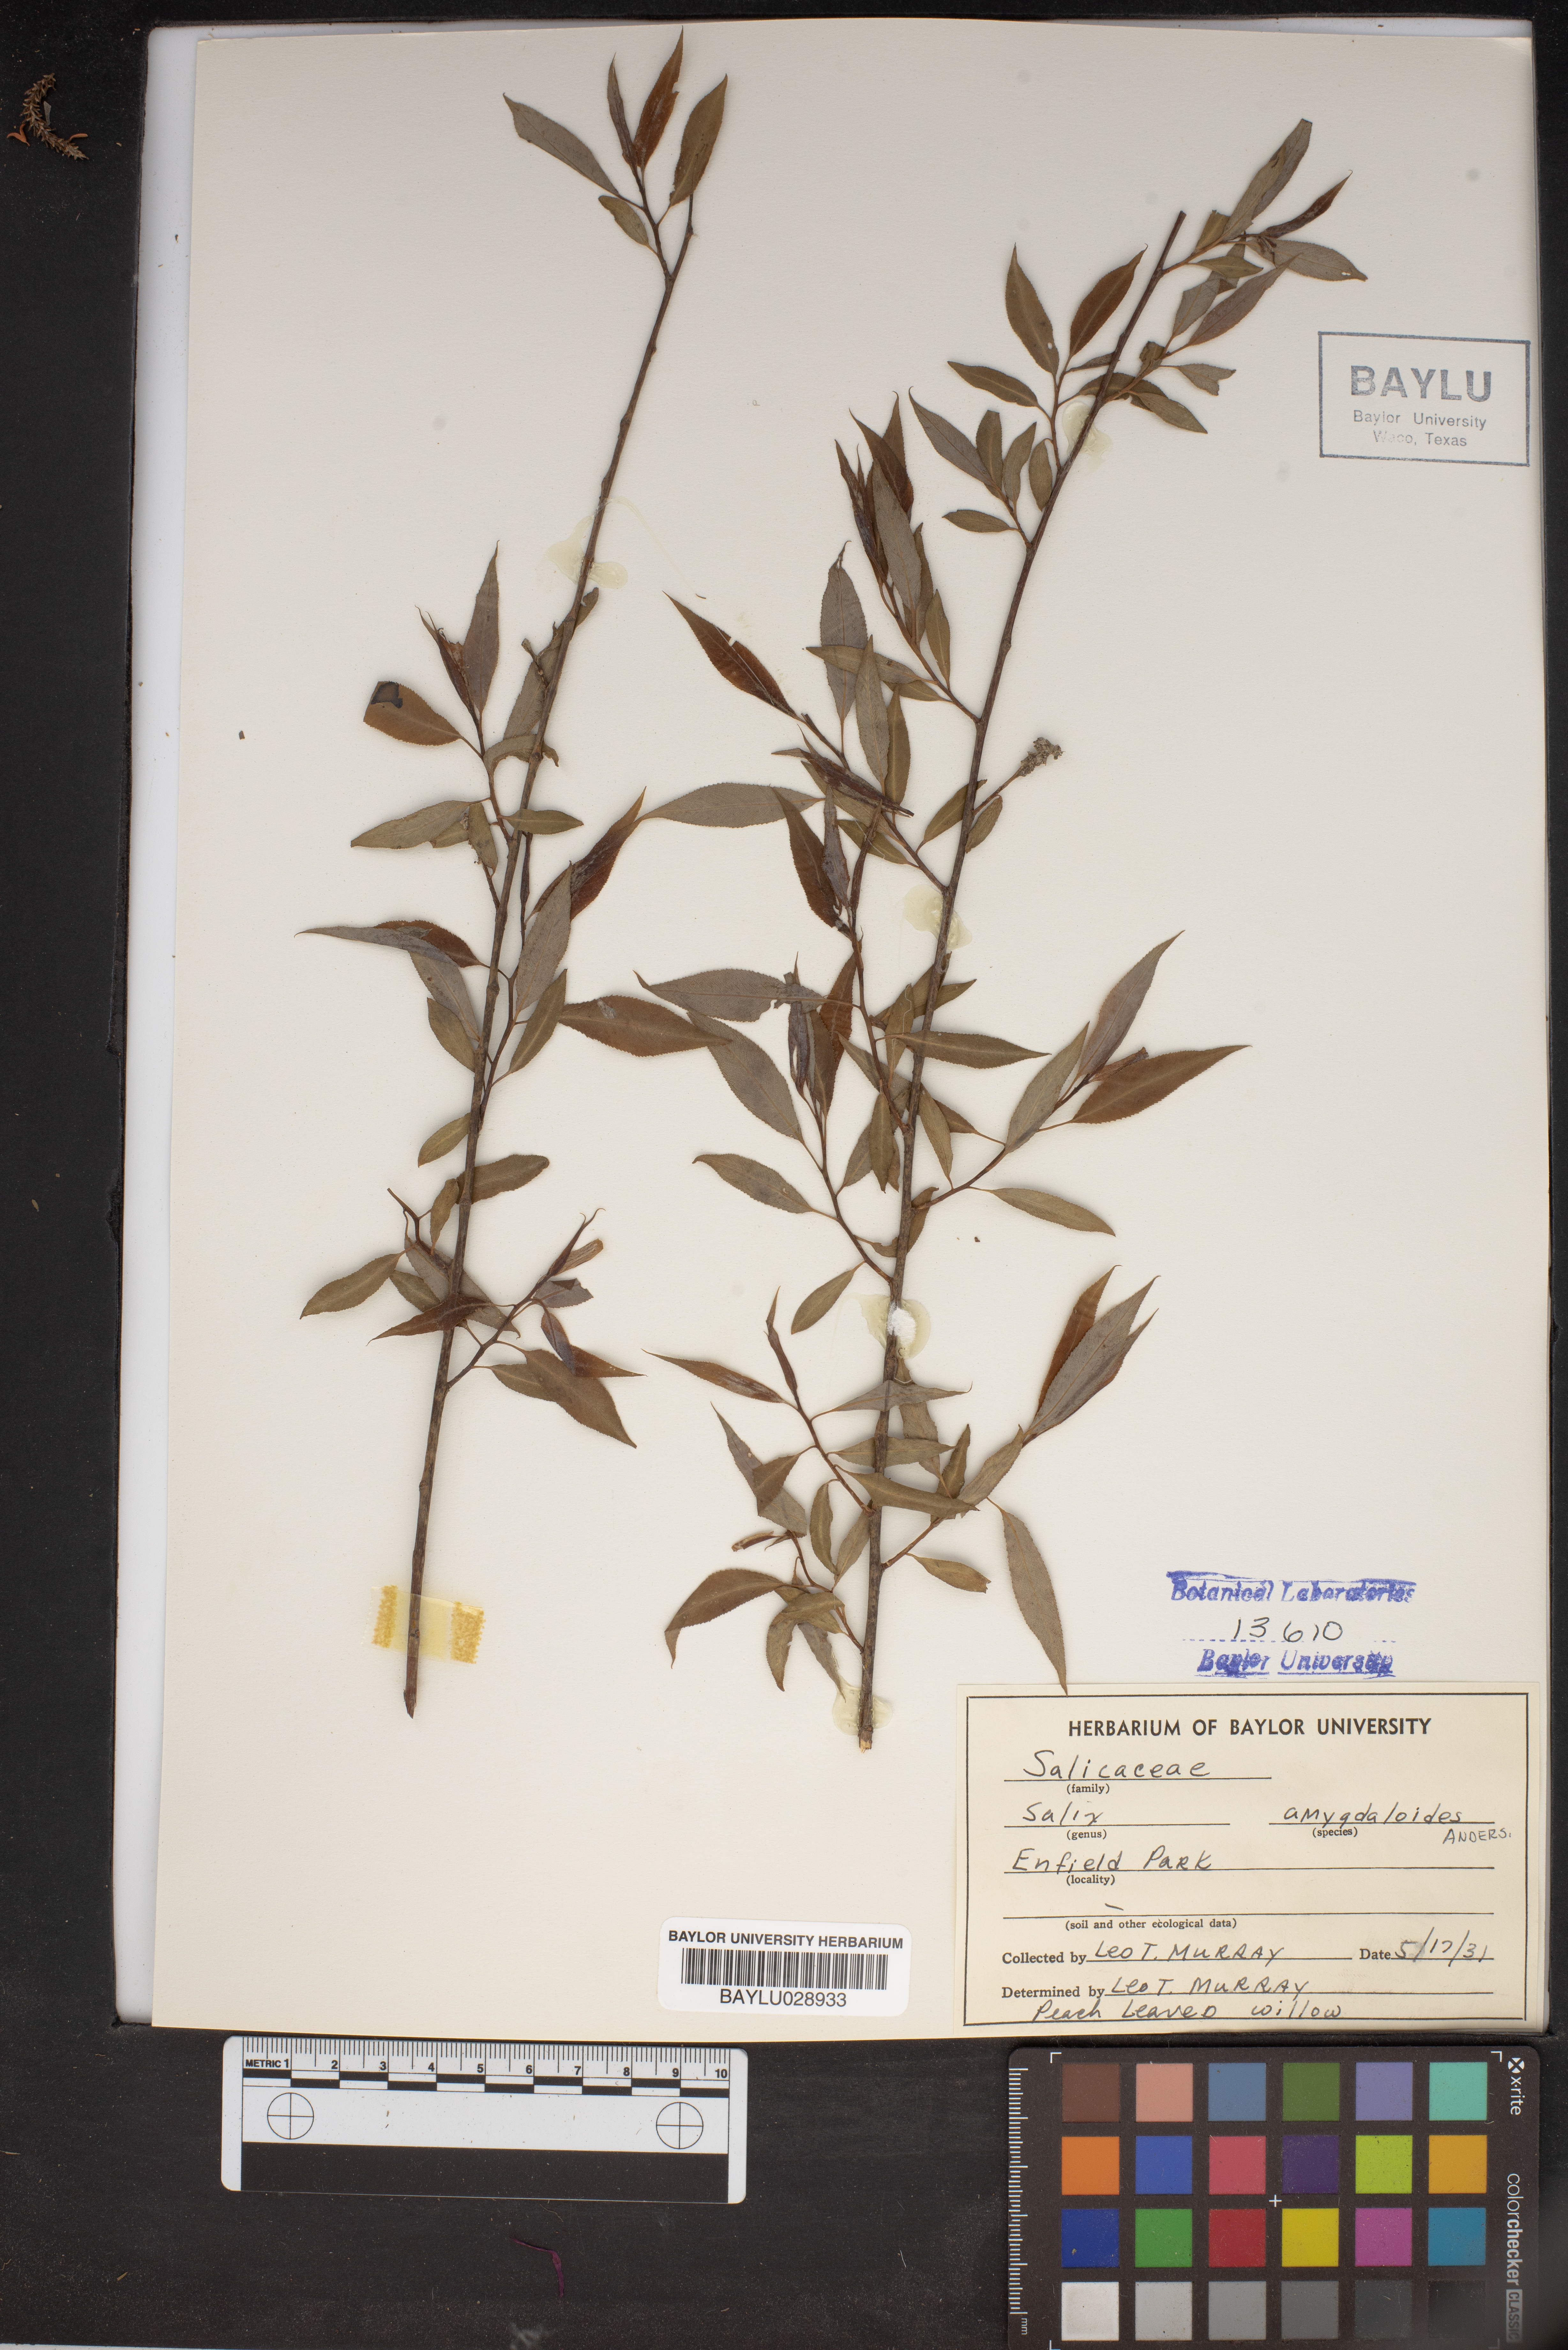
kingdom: Plantae
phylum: Tracheophyta
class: Magnoliopsida
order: Malpighiales
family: Salicaceae
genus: Salix
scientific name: Salix amygdaloides
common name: Peach leaf willow
